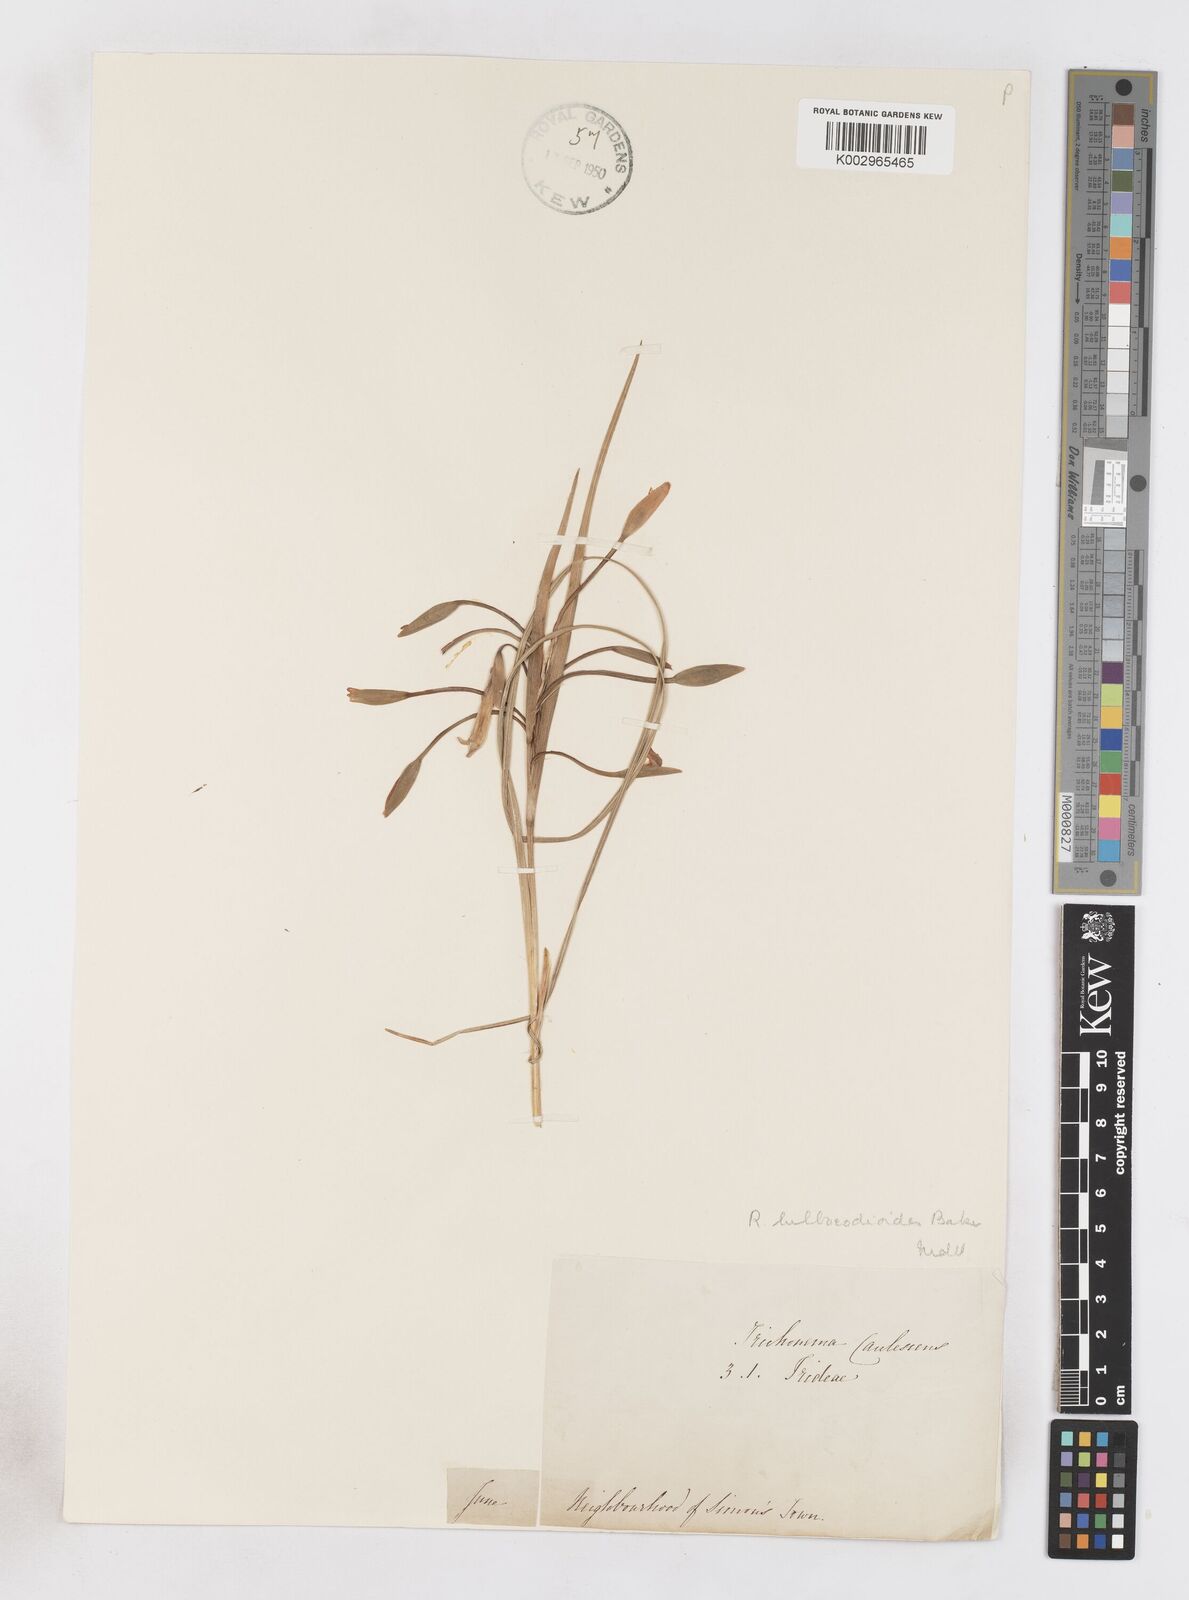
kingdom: Plantae
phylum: Tracheophyta
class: Liliopsida
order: Asparagales
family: Iridaceae
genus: Romulea
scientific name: Romulea flava
